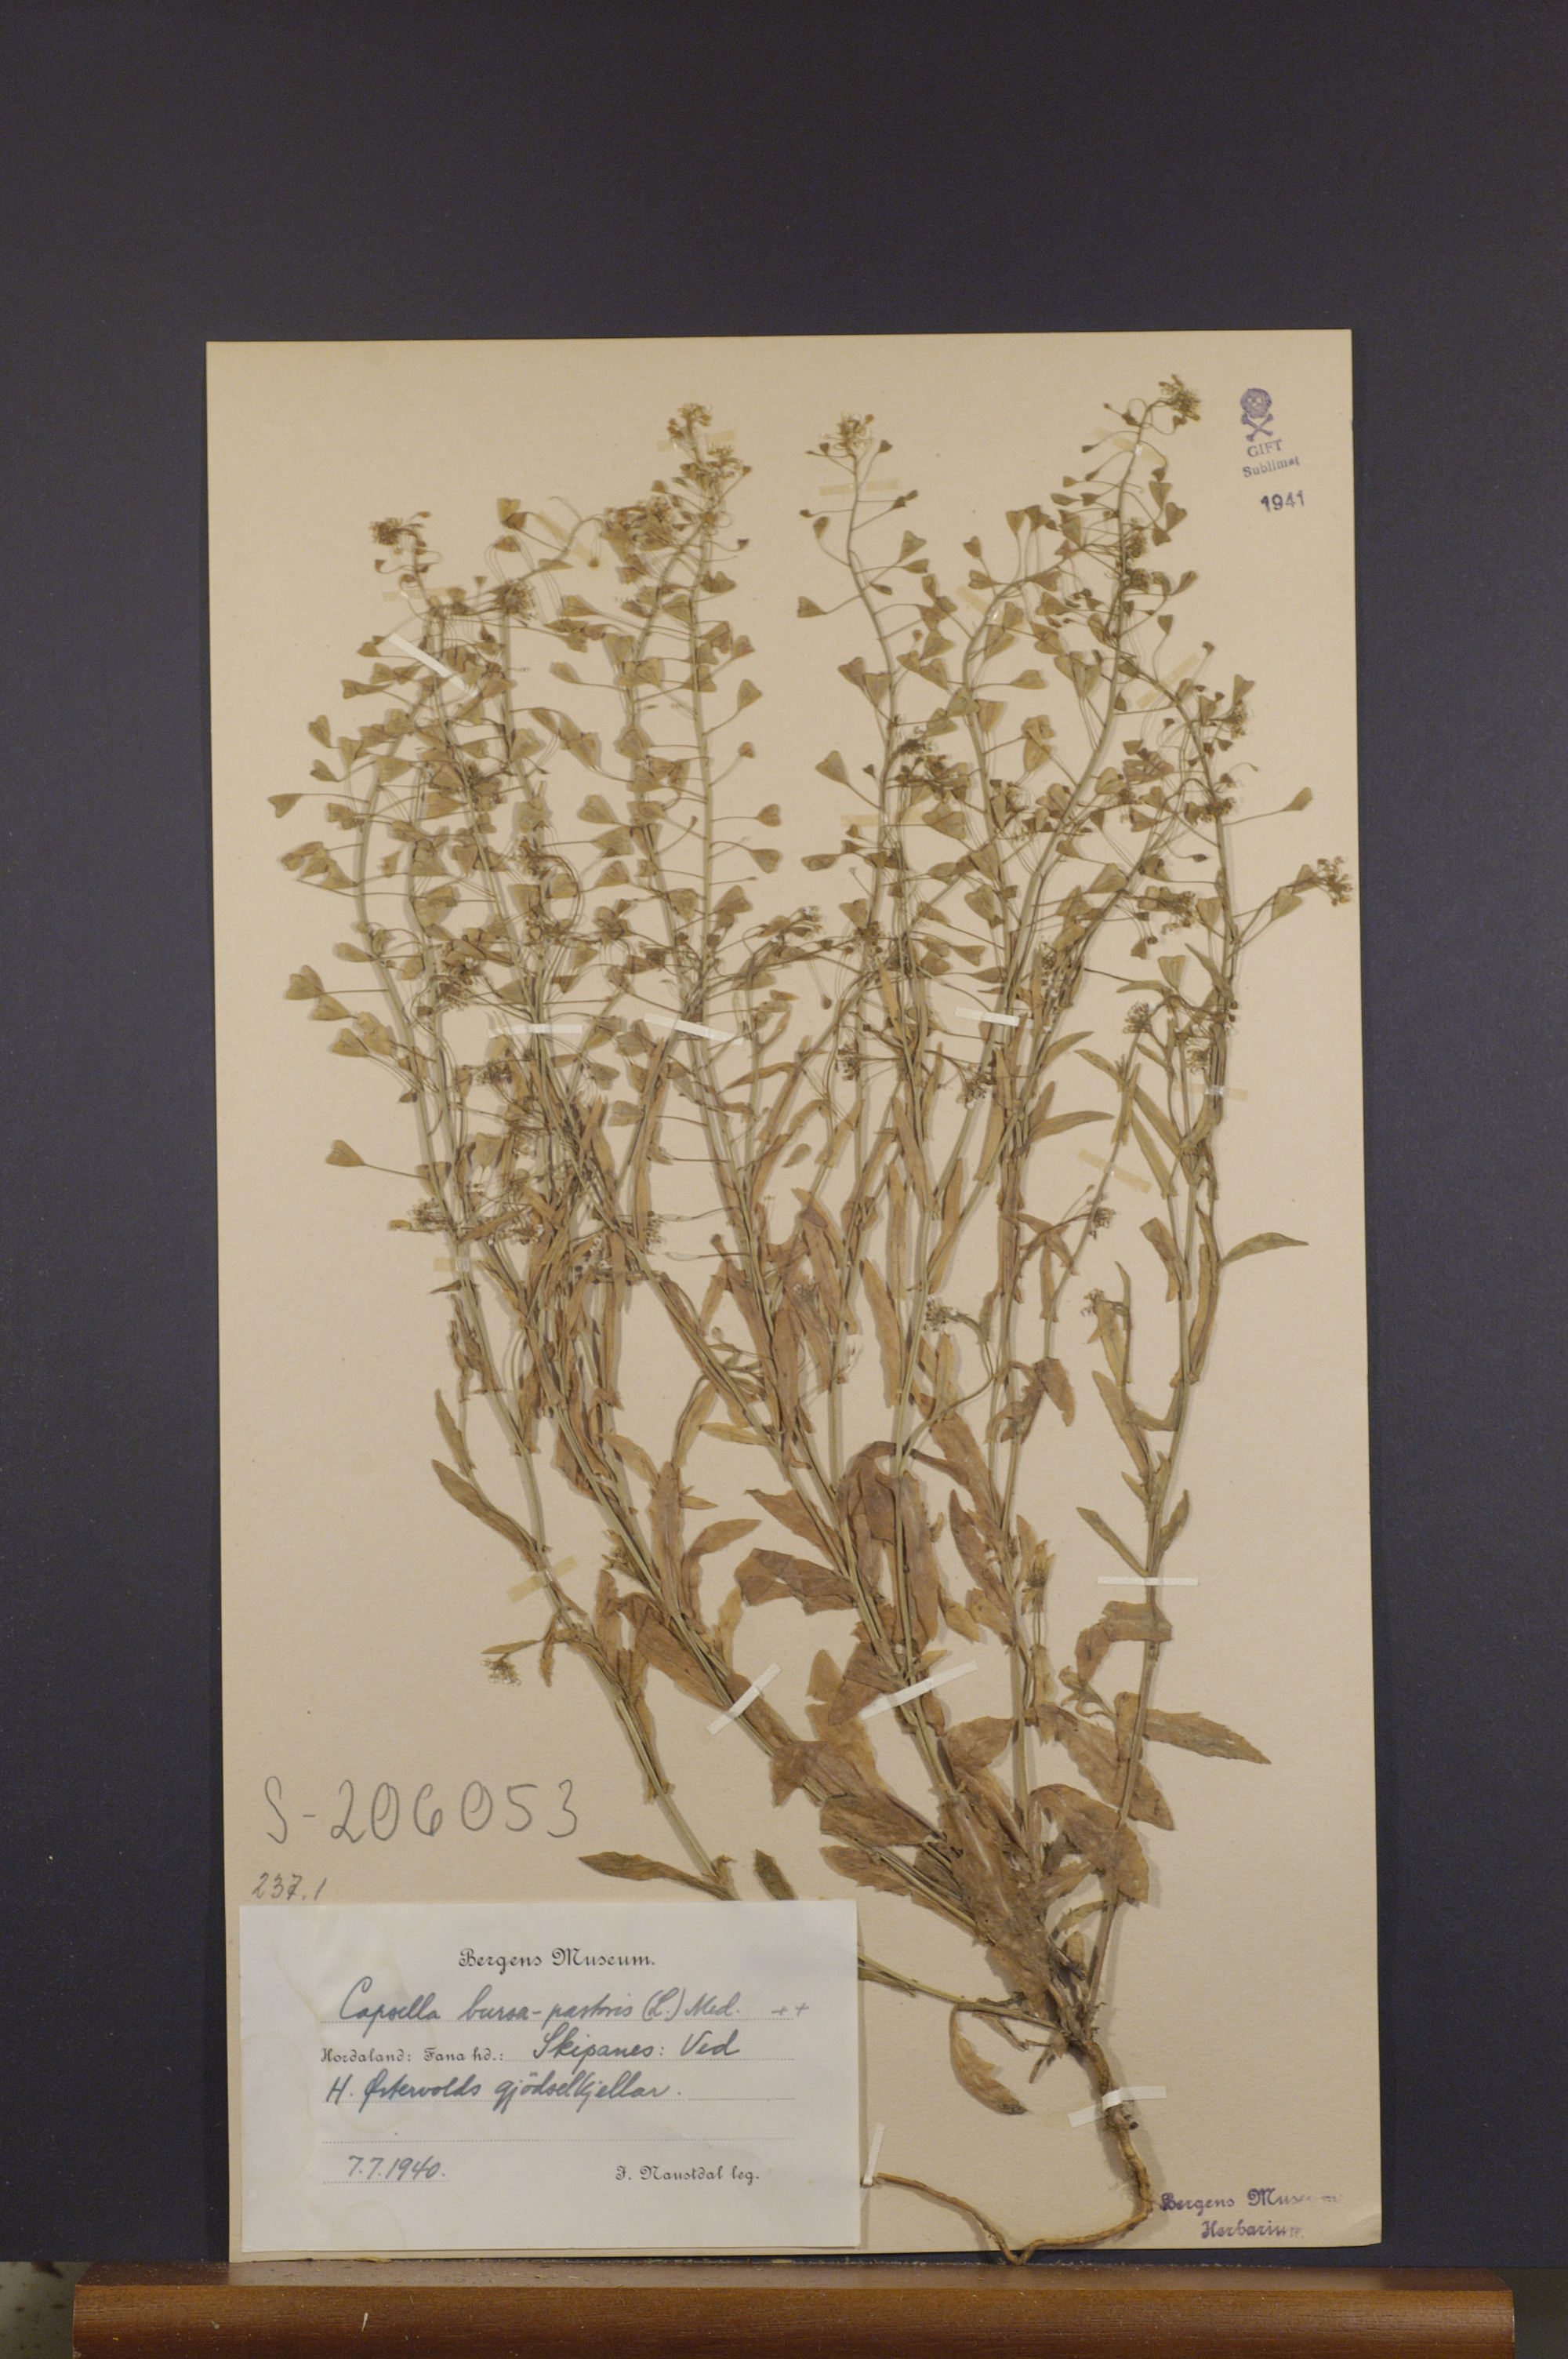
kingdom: Plantae
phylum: Tracheophyta
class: Magnoliopsida
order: Brassicales
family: Brassicaceae
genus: Capsella
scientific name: Capsella bursa-pastoris
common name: Shepherd's purse
